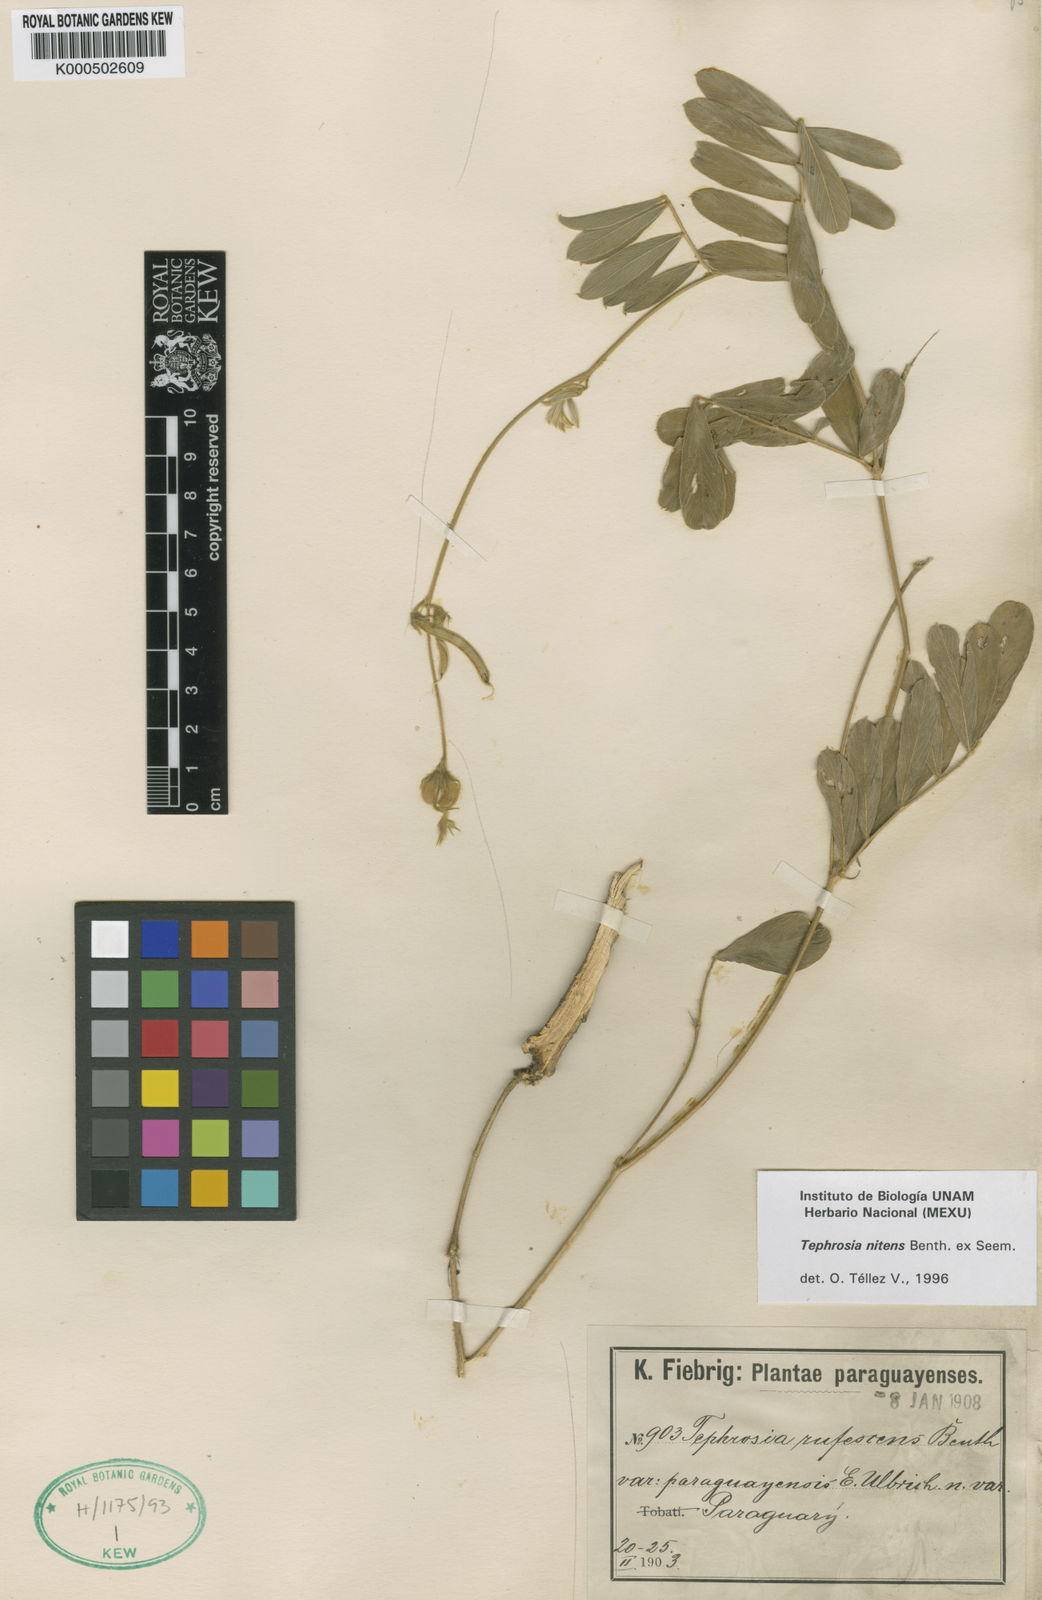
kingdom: Plantae
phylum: Tracheophyta
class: Magnoliopsida
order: Fabales
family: Fabaceae
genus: Tephrosia
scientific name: Tephrosia adunca
